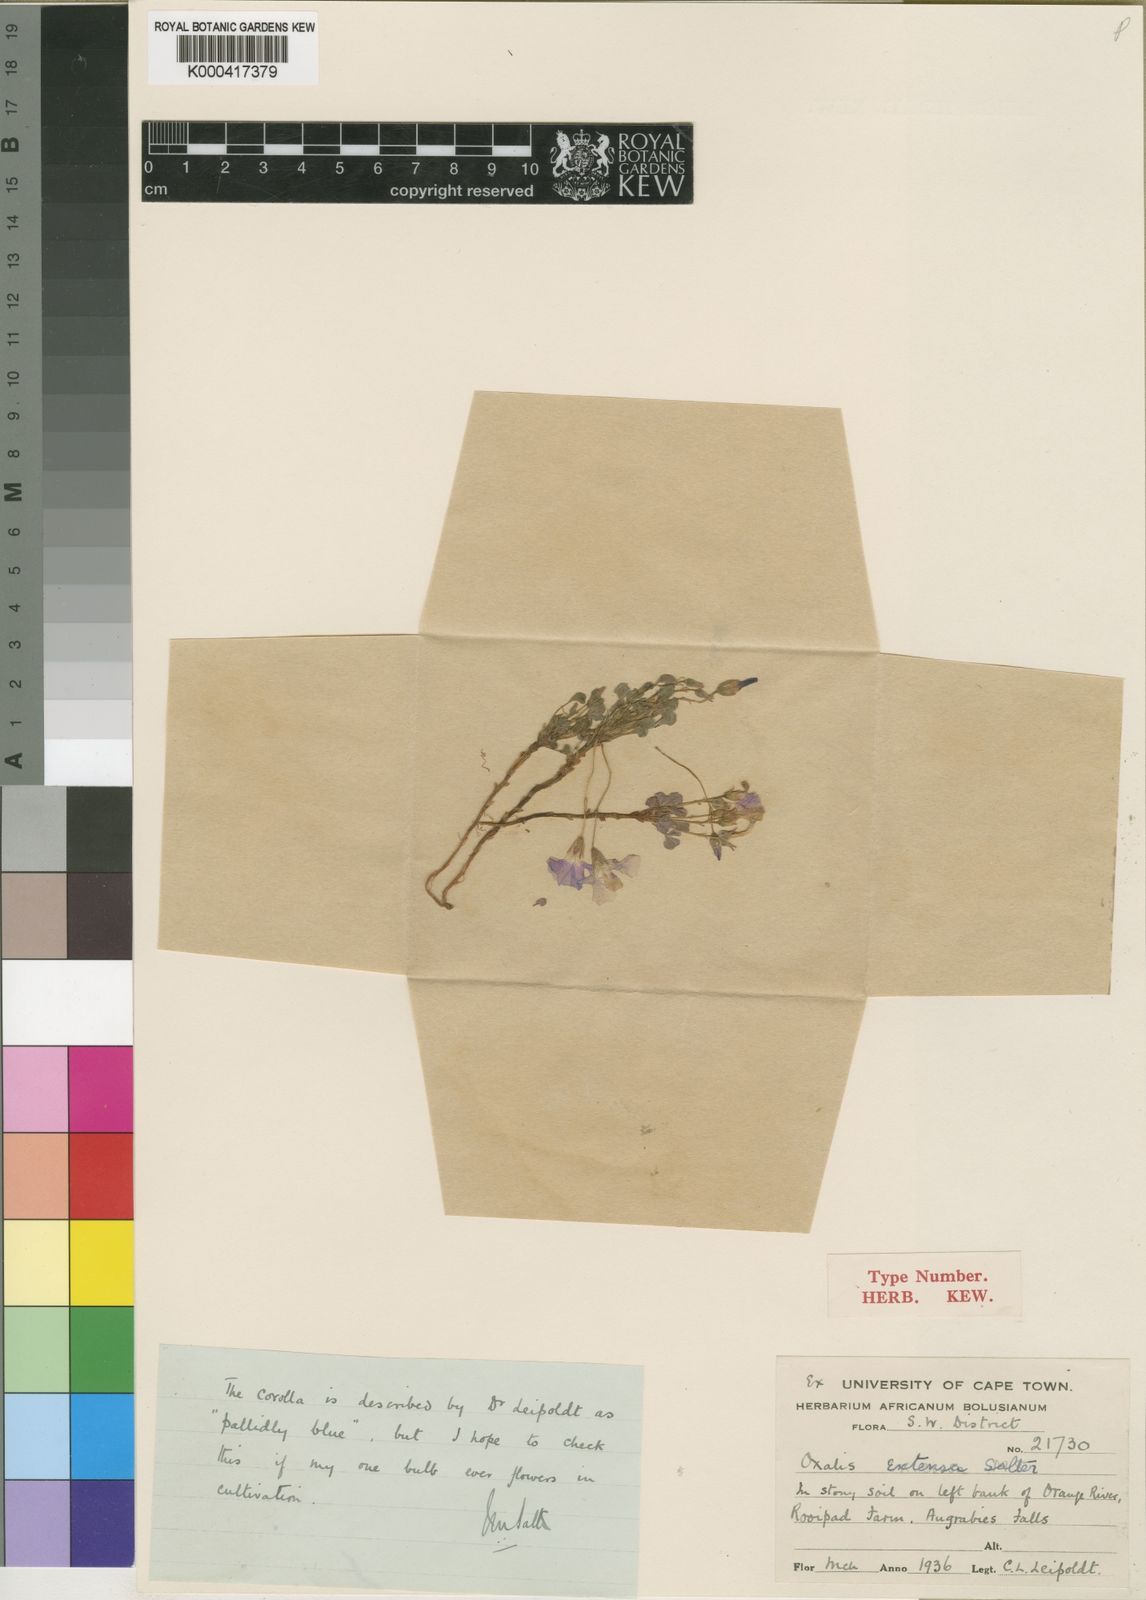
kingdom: Plantae
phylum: Tracheophyta
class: Magnoliopsida
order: Oxalidales
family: Oxalidaceae
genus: Oxalis
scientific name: Oxalis extensa
